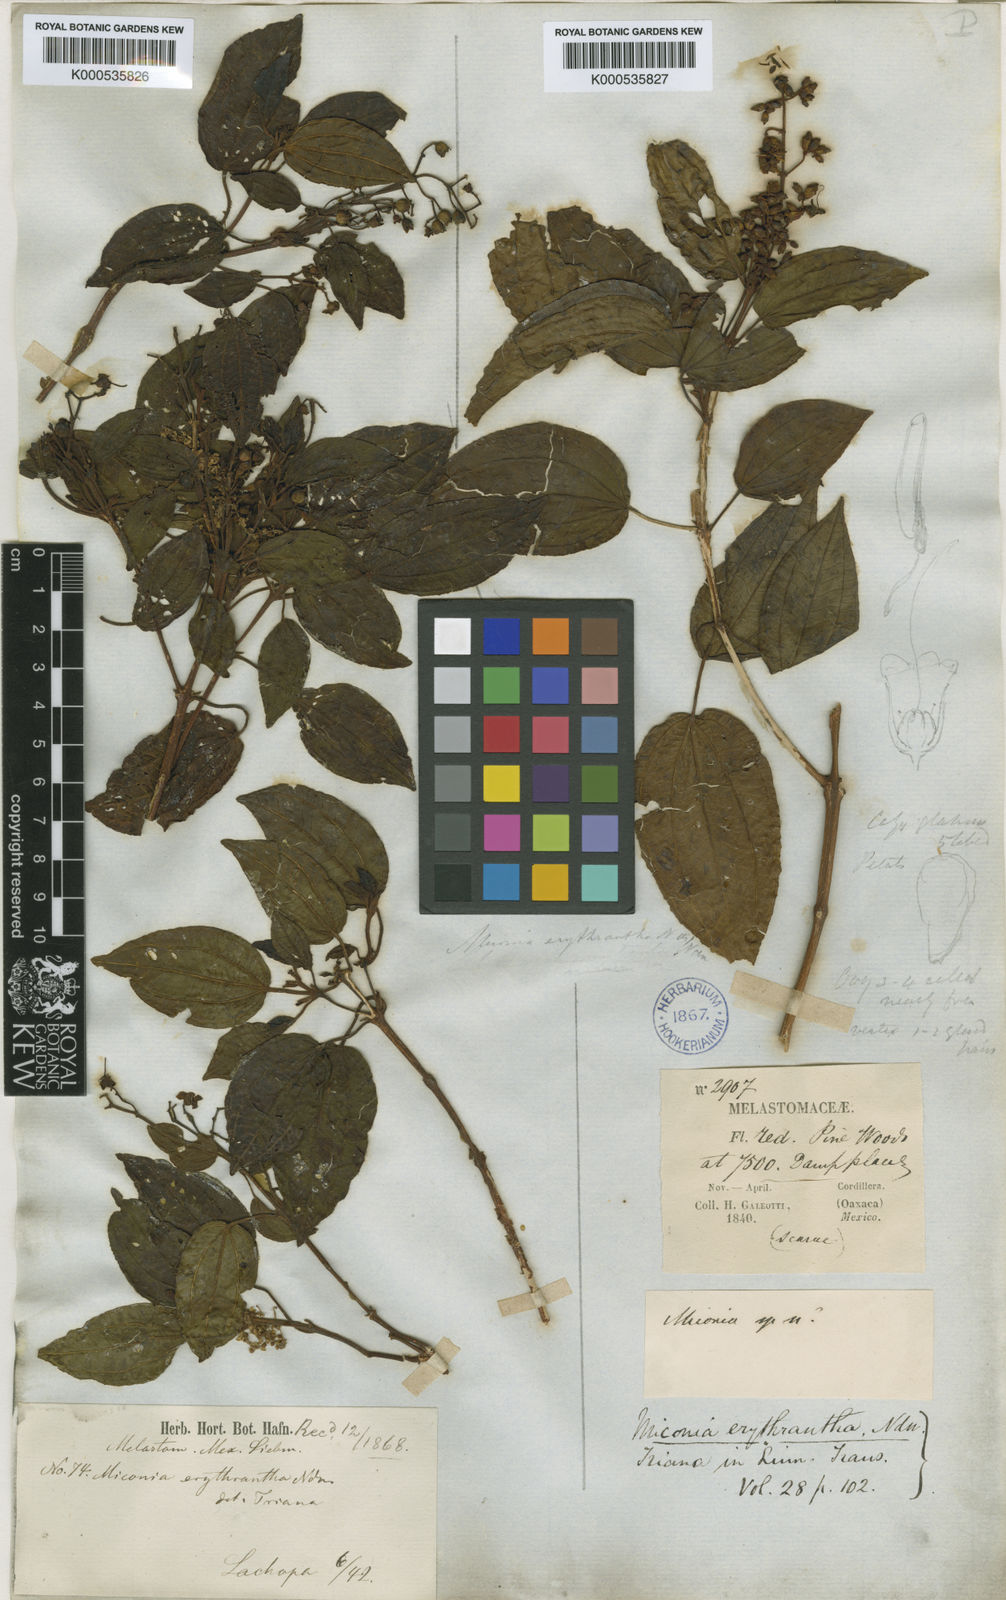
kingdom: Plantae
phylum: Tracheophyta
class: Magnoliopsida
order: Myrtales
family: Melastomataceae
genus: Miconia
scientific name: Miconia erythrantha
